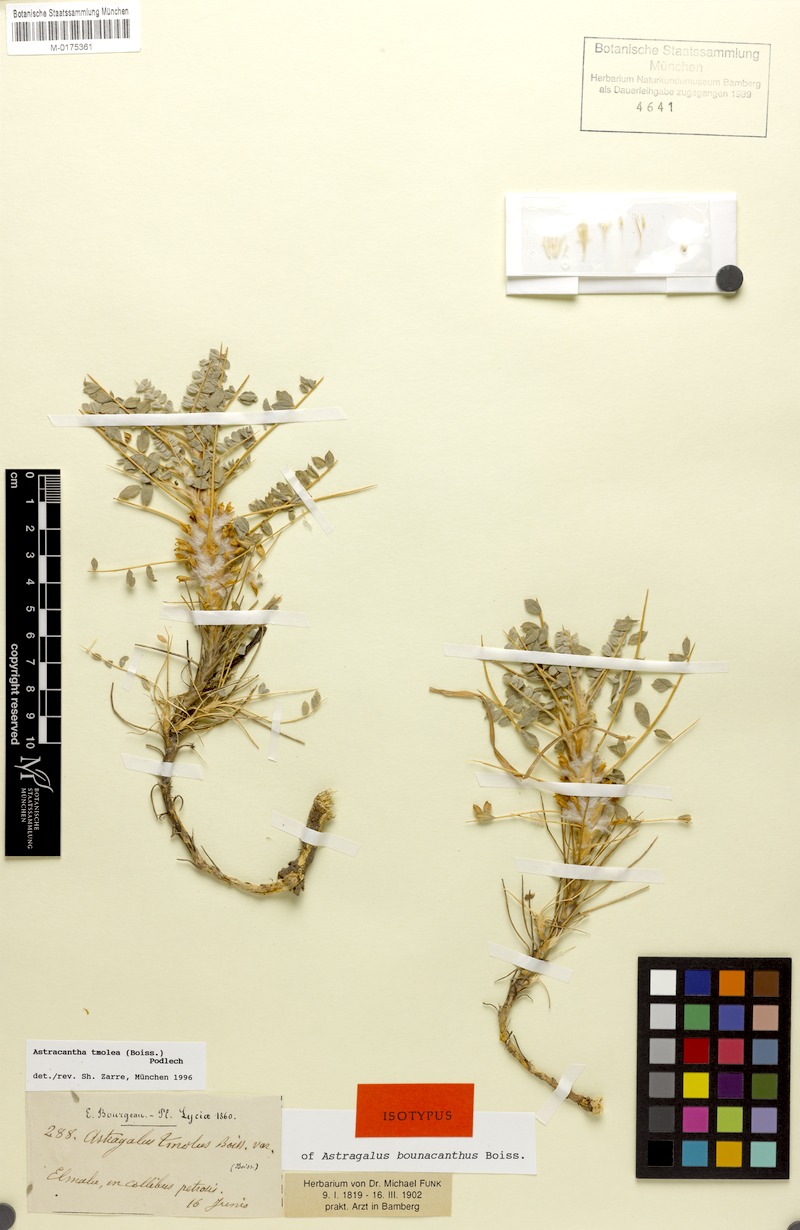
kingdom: Plantae
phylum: Tracheophyta
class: Magnoliopsida
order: Fabales
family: Fabaceae
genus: Astragalus
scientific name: Astragalus tmoleus
